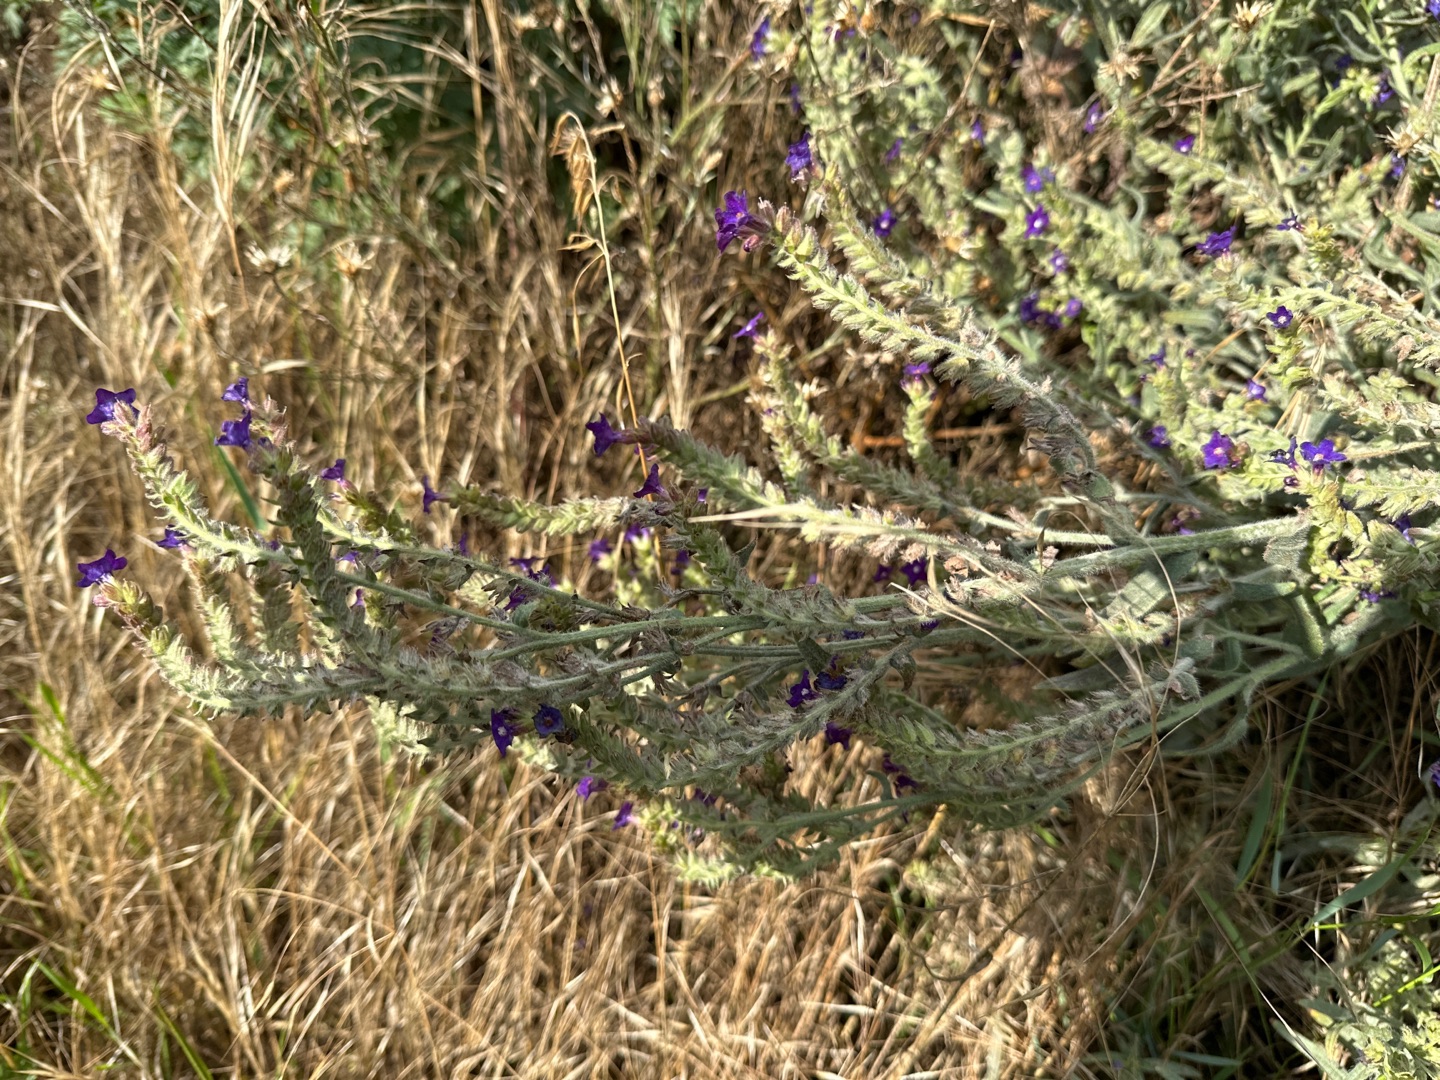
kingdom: Plantae
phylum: Tracheophyta
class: Magnoliopsida
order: Boraginales
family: Boraginaceae
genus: Anchusa
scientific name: Anchusa officinalis
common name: Læge-oksetunge
